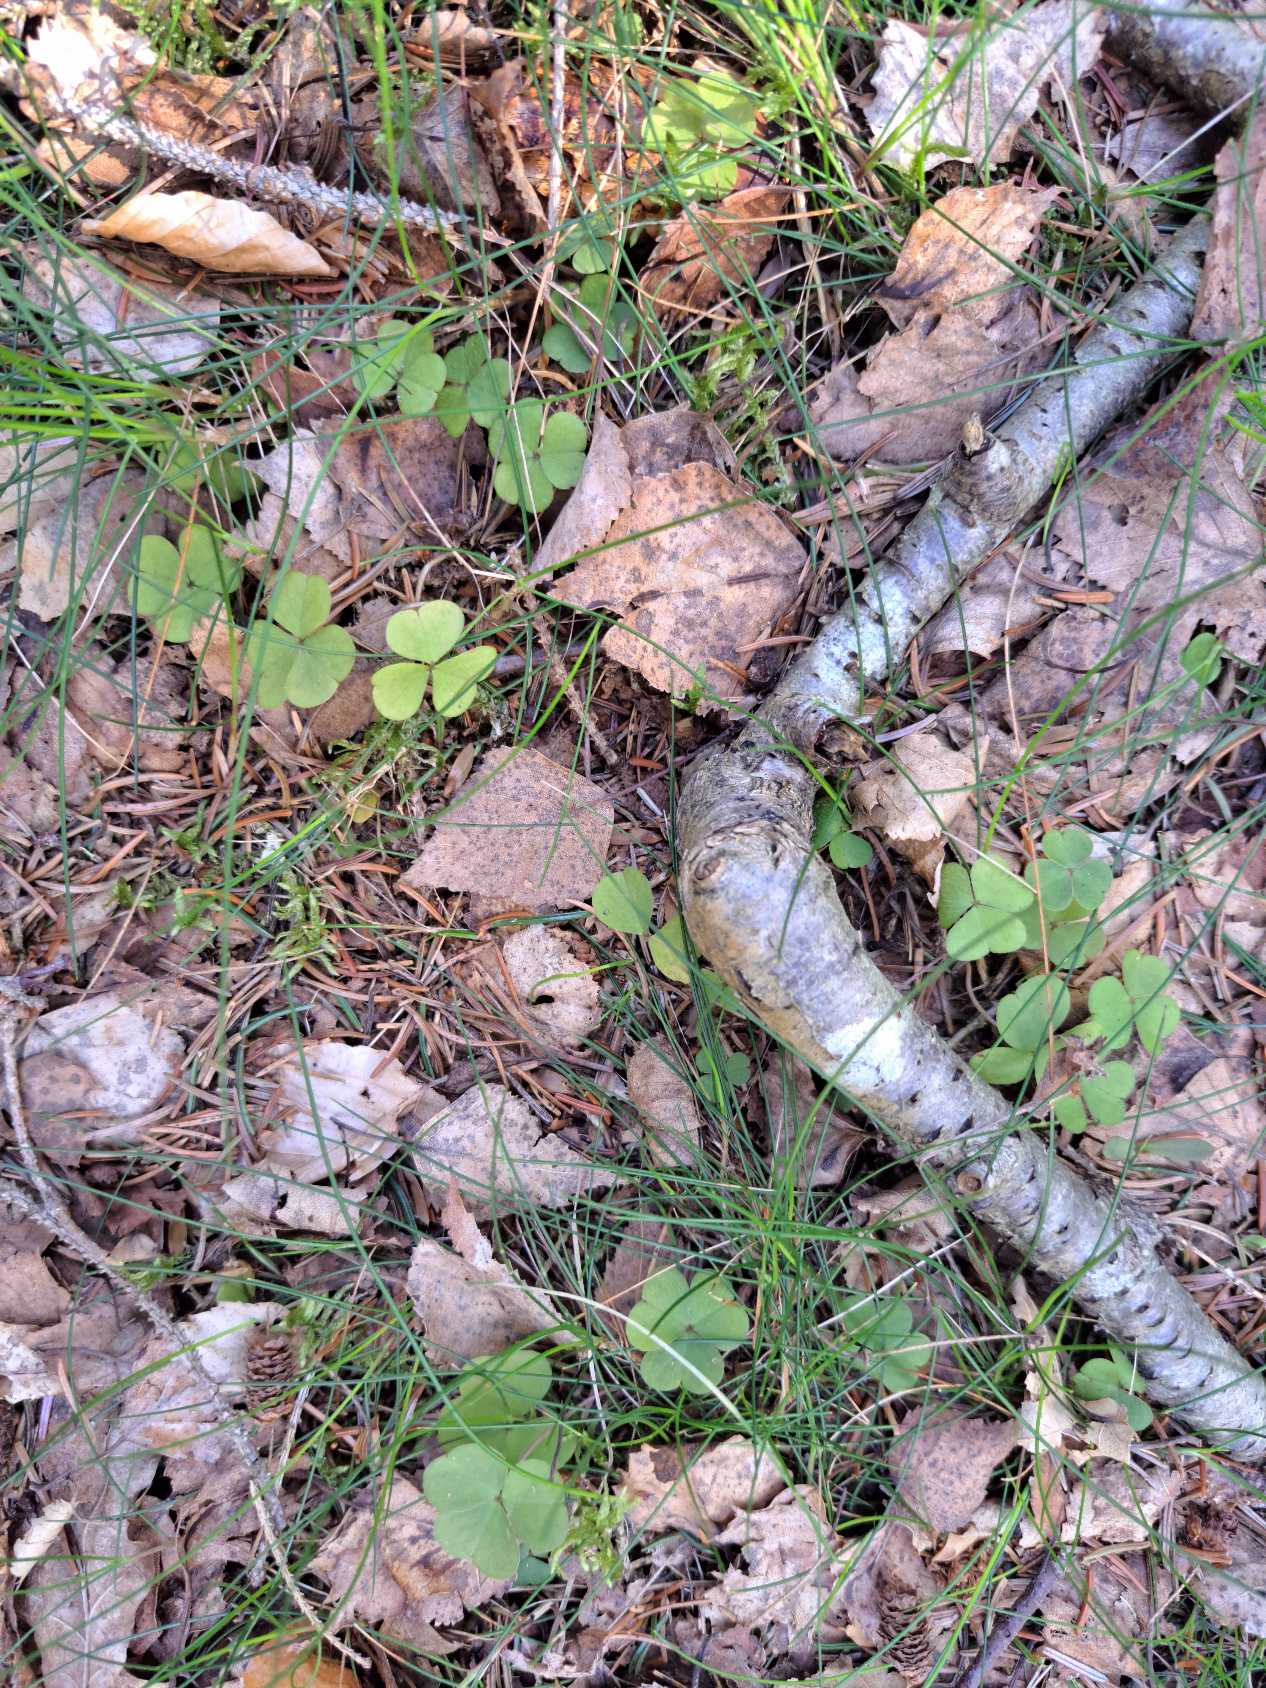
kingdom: Plantae
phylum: Tracheophyta
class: Magnoliopsida
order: Oxalidales
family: Oxalidaceae
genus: Oxalis
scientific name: Oxalis acetosella
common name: Skovsyre
